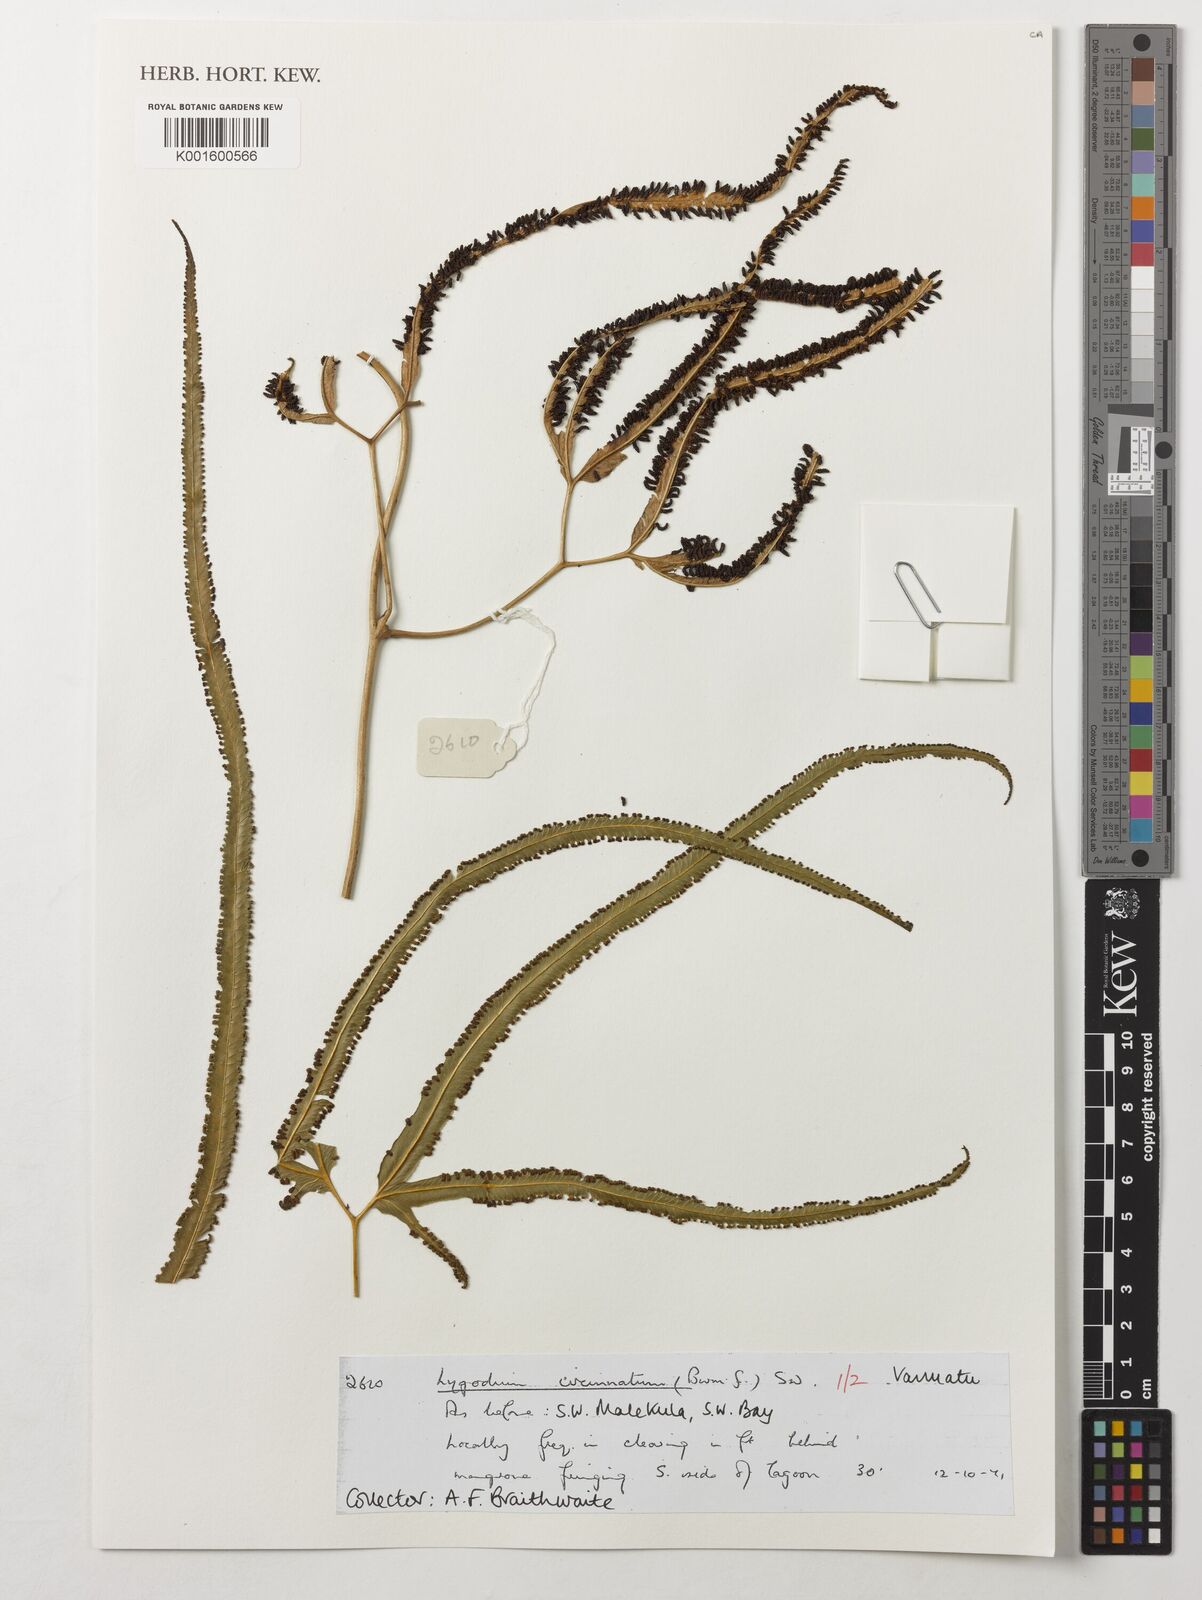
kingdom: Plantae
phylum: Tracheophyta
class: Polypodiopsida
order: Schizaeales
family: Lygodiaceae
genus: Lygodium
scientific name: Lygodium circinnatum
